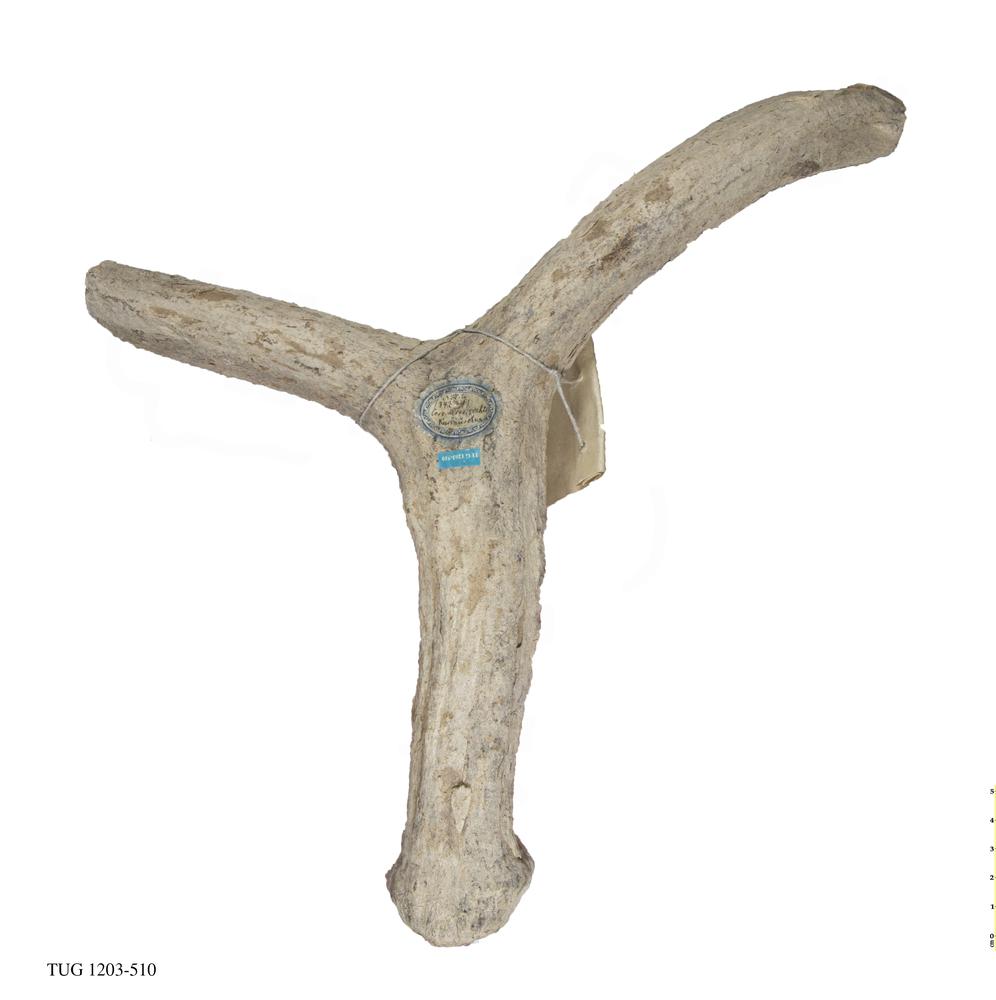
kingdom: Animalia
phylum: Chordata
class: Mammalia
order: Artiodactyla
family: Cervidae
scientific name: Cervidae
